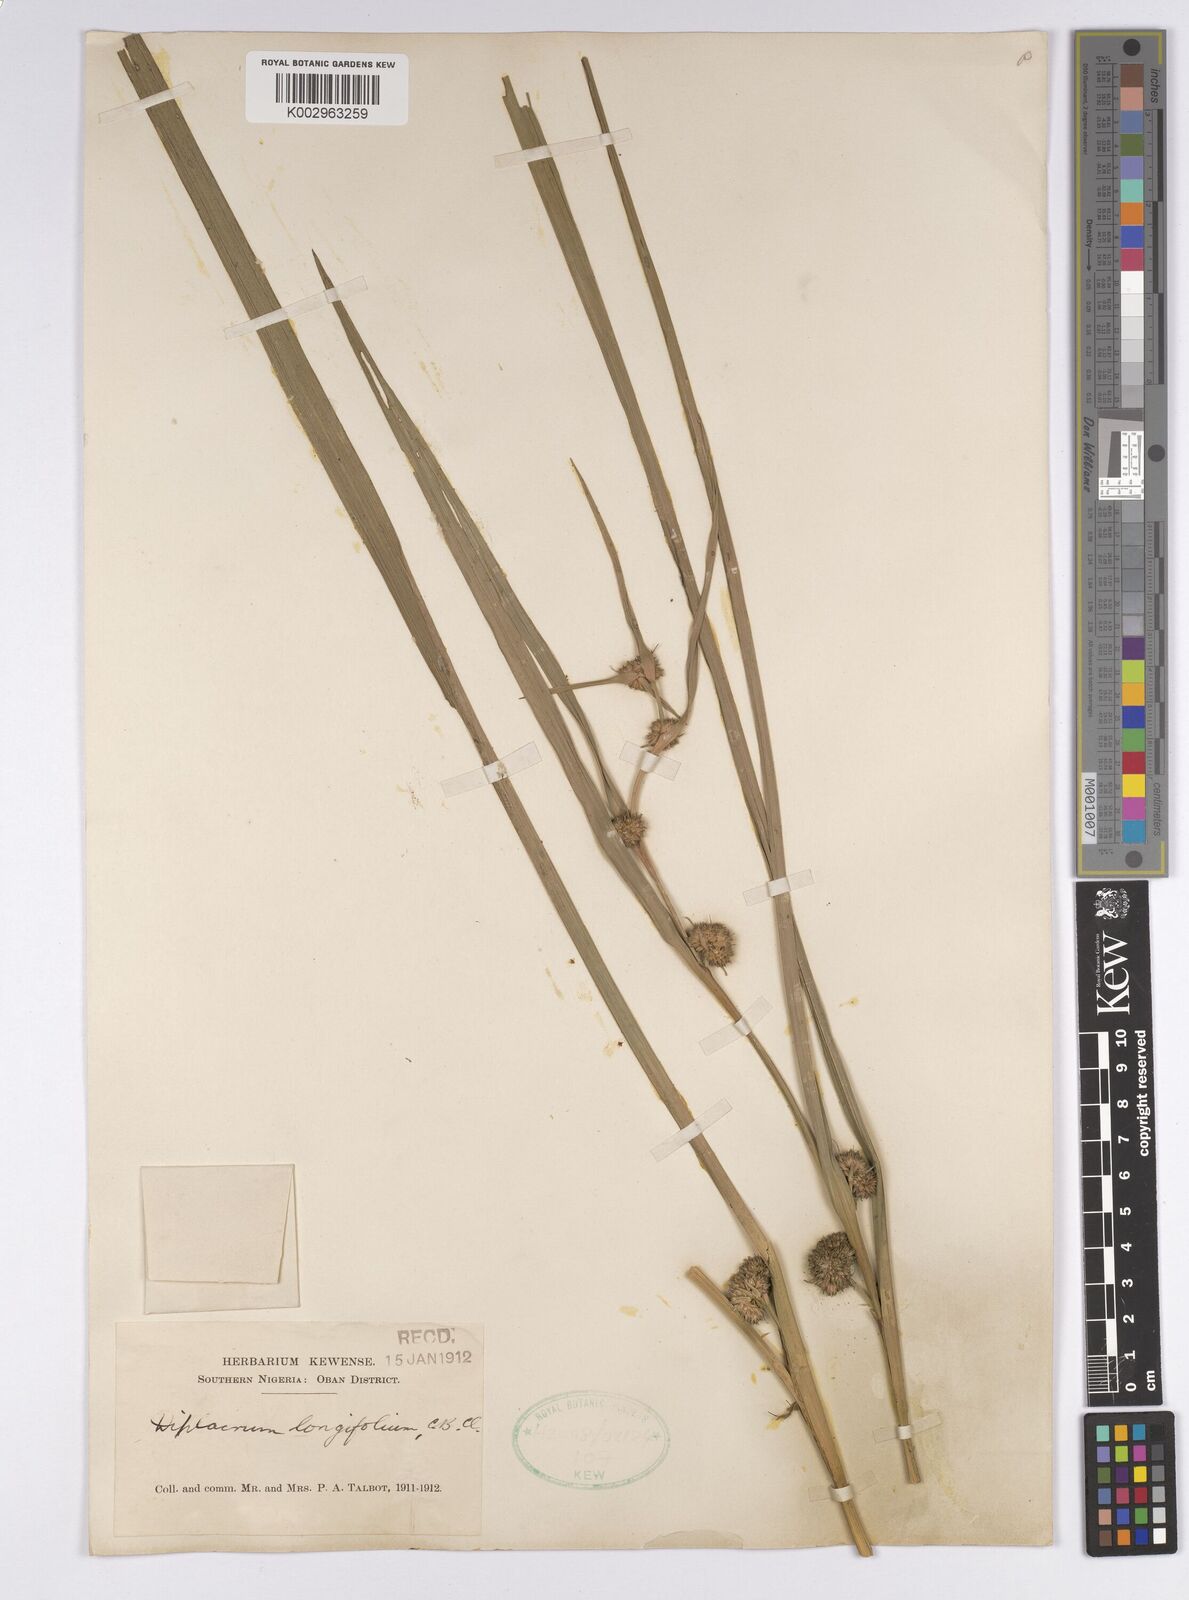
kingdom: Plantae
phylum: Tracheophyta
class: Liliopsida
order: Poales
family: Cyperaceae
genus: Diplacrum
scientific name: Diplacrum capitatum
